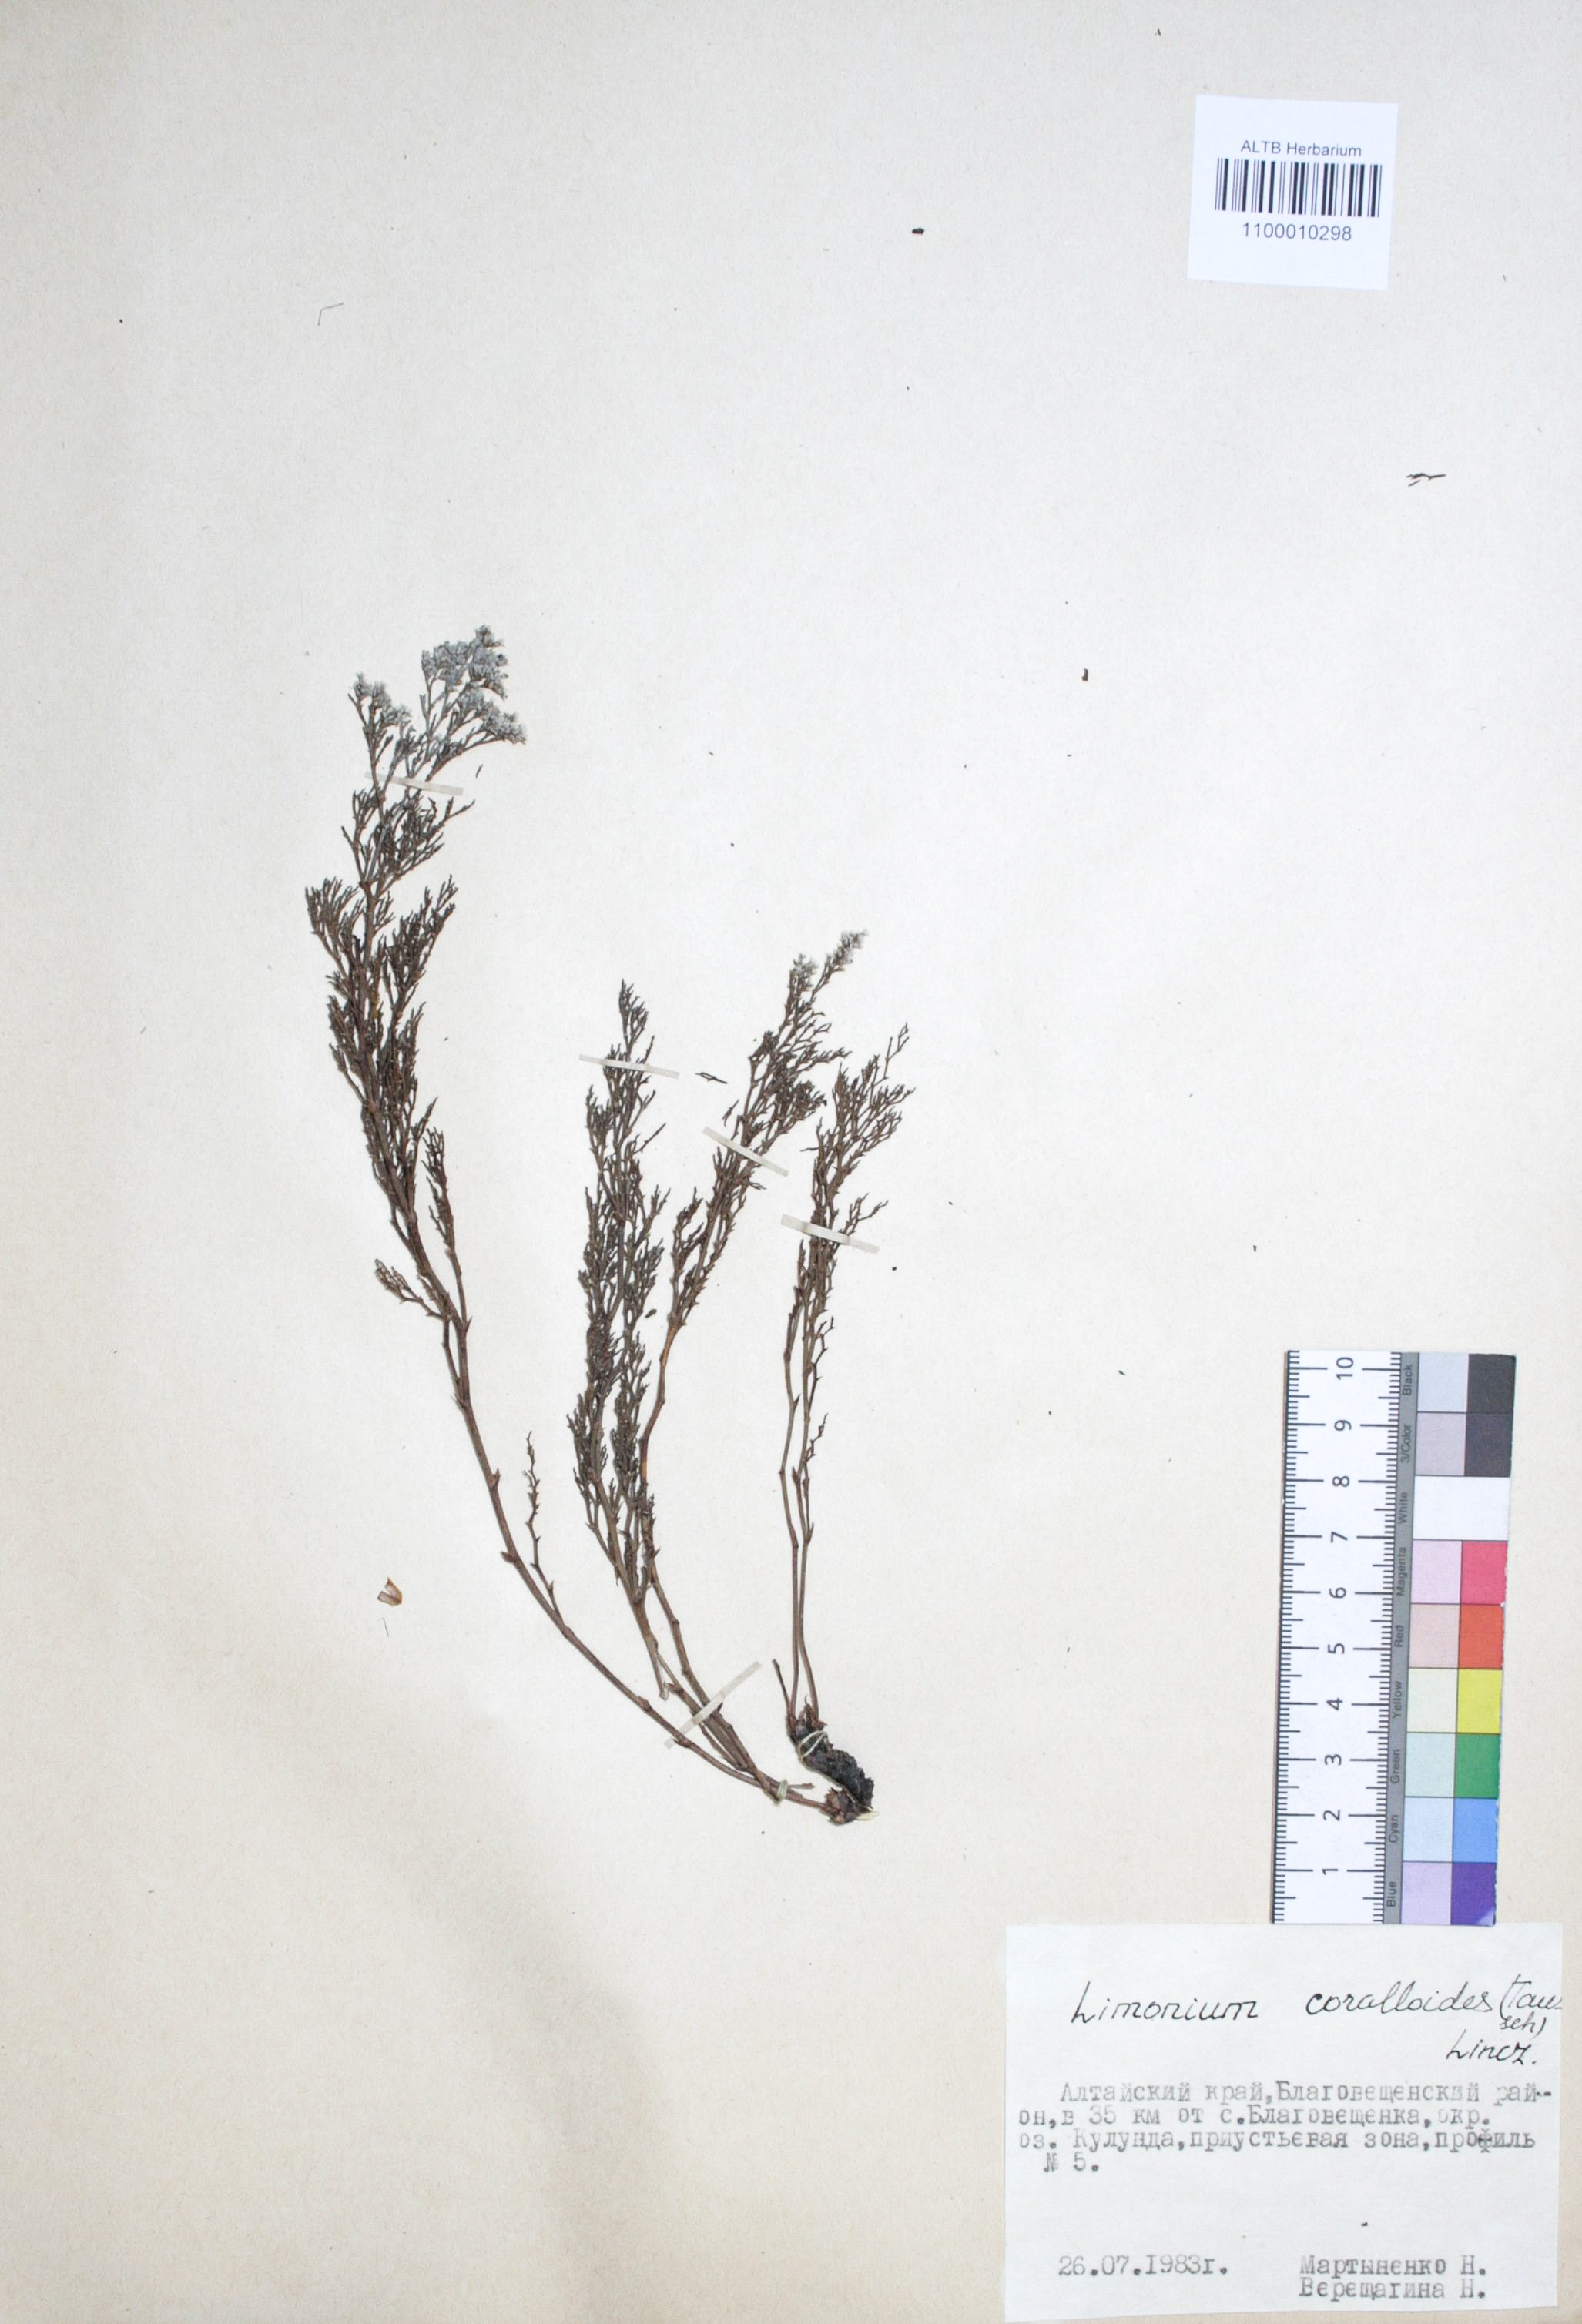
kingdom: Plantae
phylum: Tracheophyta
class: Magnoliopsida
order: Caryophyllales
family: Plumbaginaceae
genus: Limonium
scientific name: Limonium coralloides
